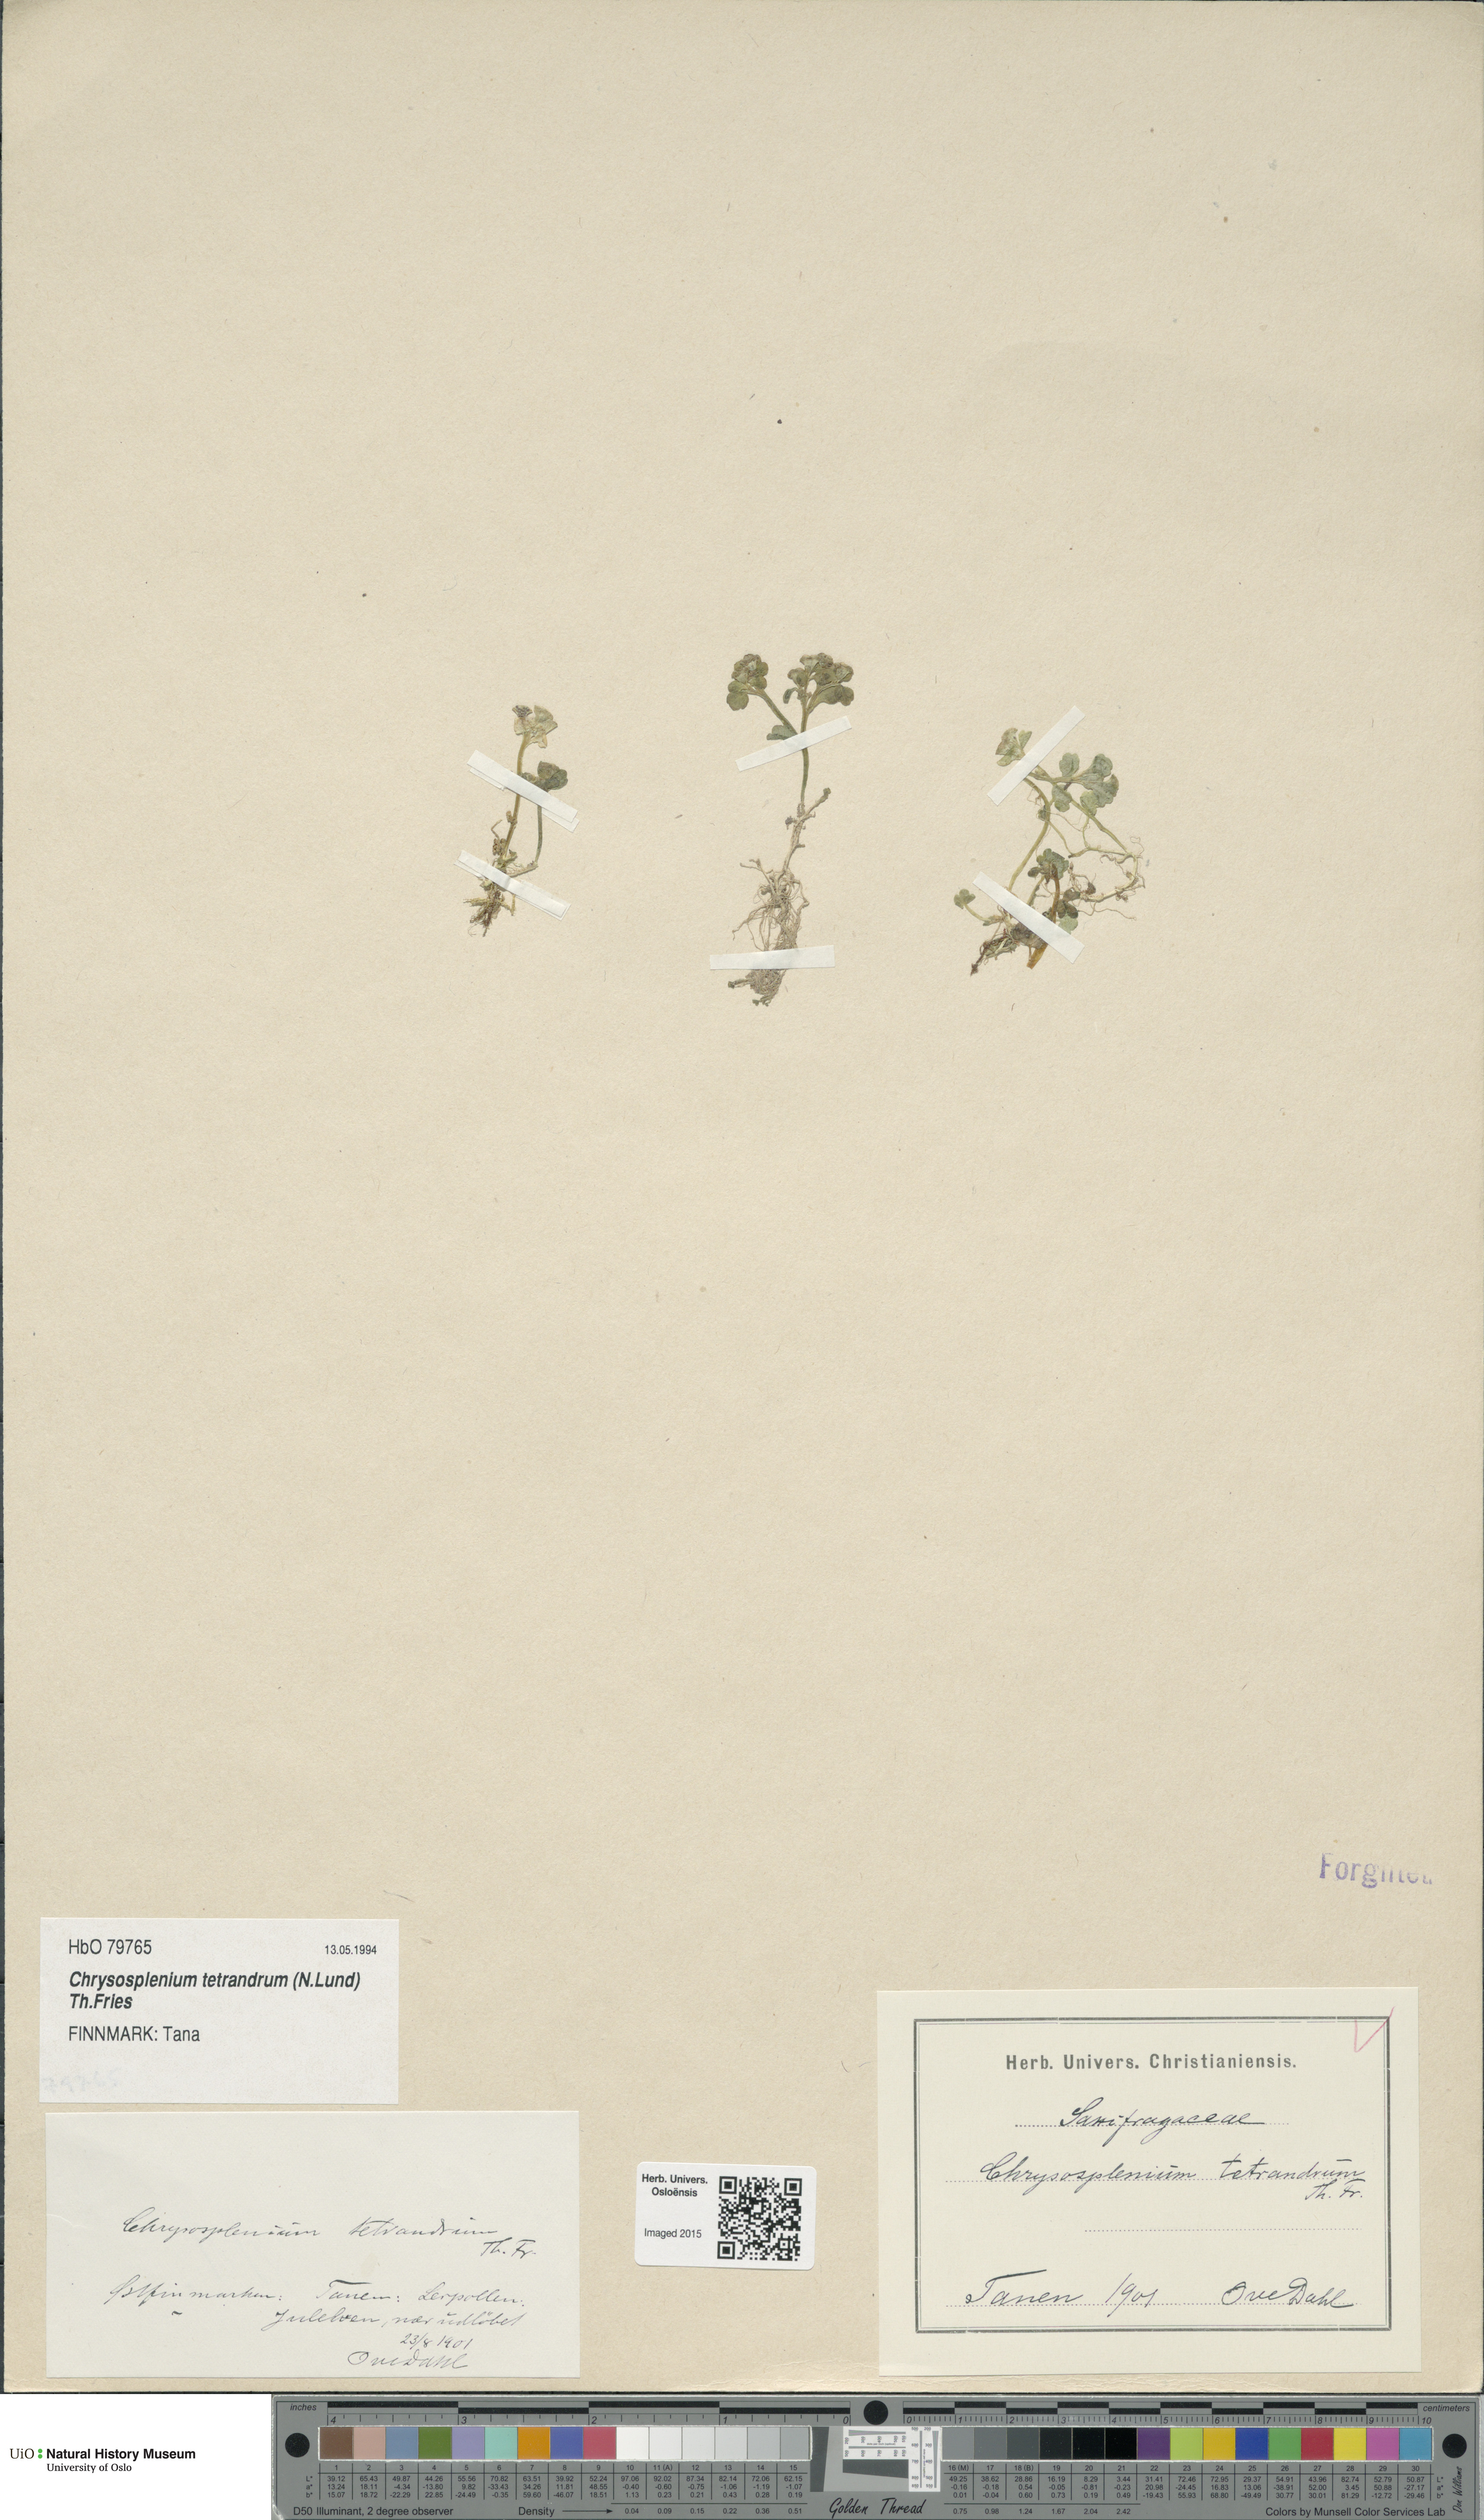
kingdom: Plantae
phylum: Tracheophyta
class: Magnoliopsida
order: Saxifragales
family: Saxifragaceae
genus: Chrysosplenium
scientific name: Chrysosplenium tetrandrum
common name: Green saxifrage
